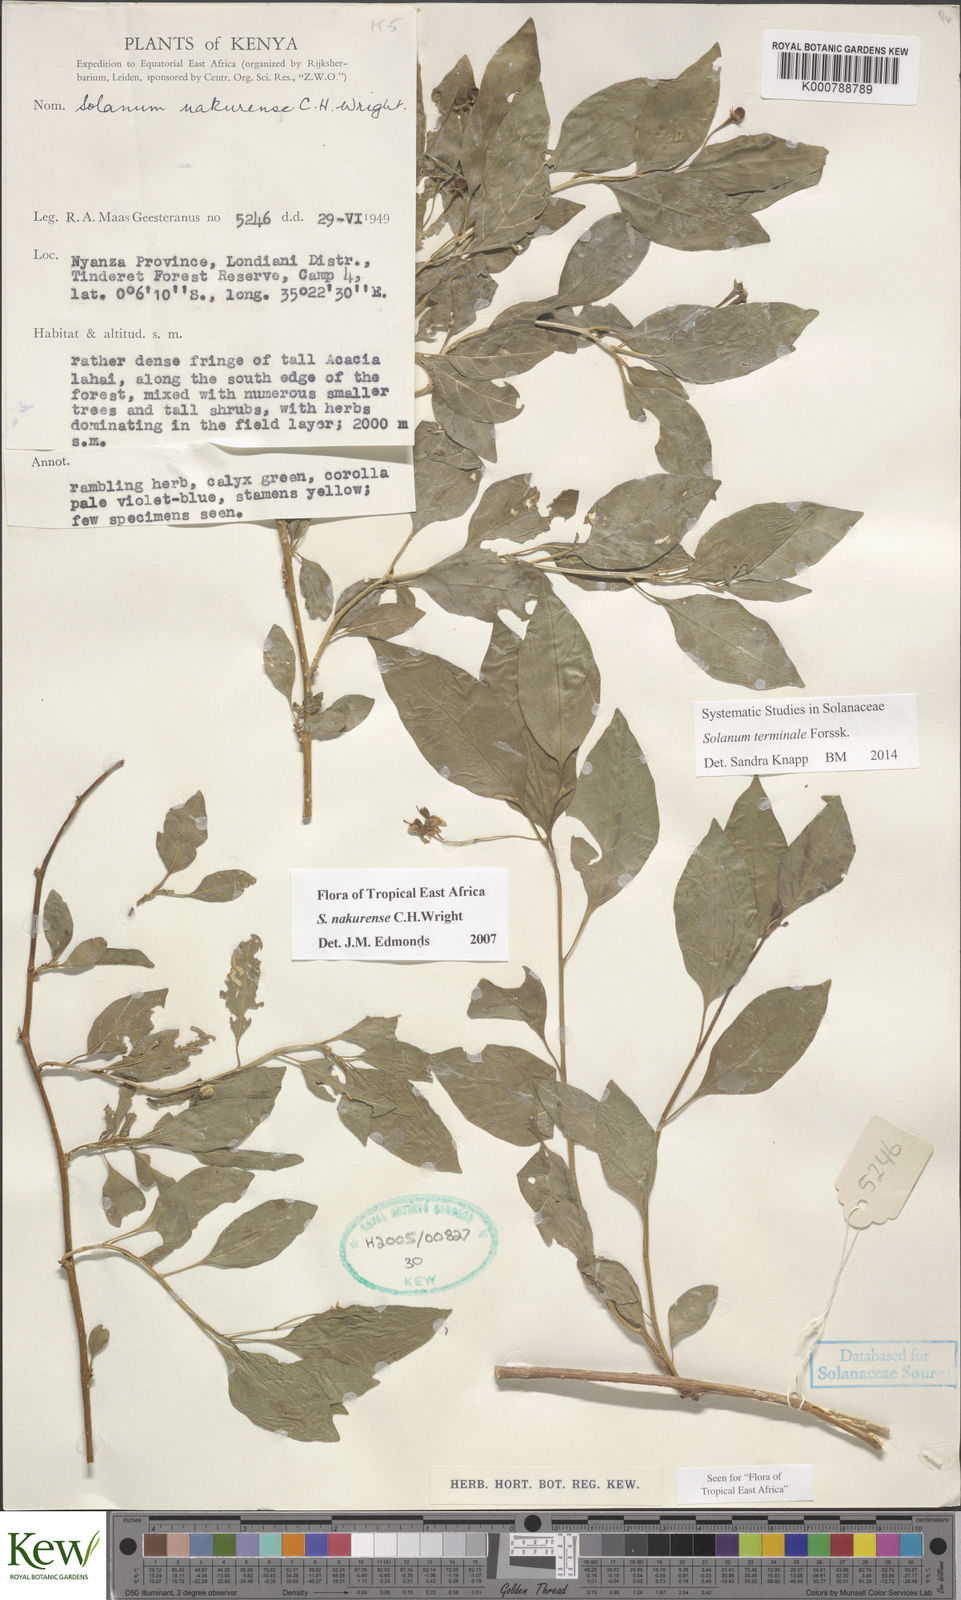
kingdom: Plantae
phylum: Tracheophyta
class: Magnoliopsida
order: Solanales
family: Solanaceae
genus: Solanum
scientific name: Solanum terminale
